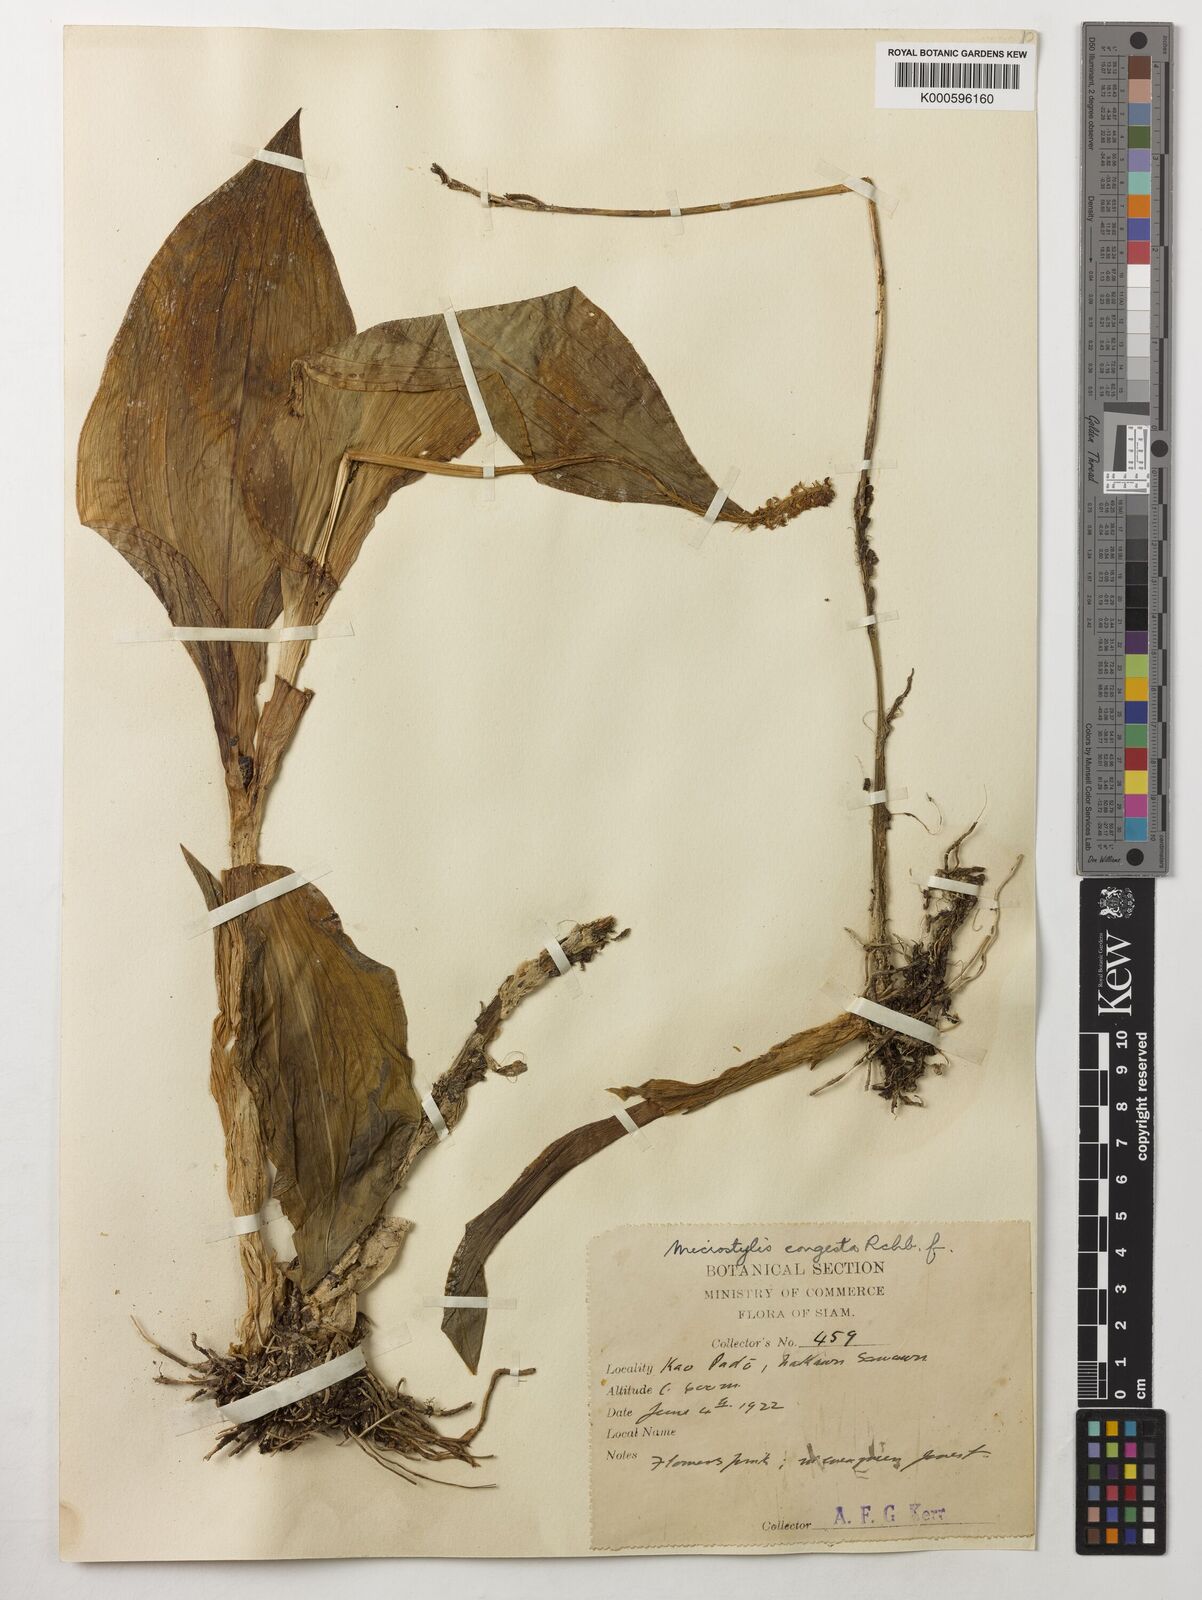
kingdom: Plantae
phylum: Tracheophyta
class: Liliopsida
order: Asparagales
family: Orchidaceae
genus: Dienia
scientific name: Dienia ophrydis
